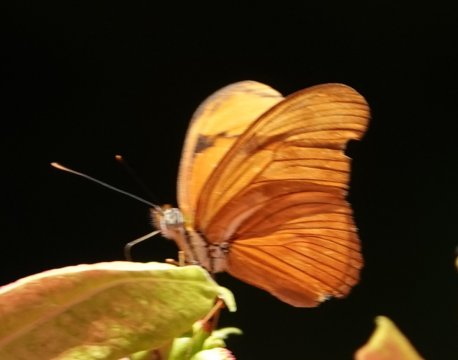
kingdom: Animalia
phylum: Arthropoda
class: Insecta
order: Lepidoptera
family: Nymphalidae
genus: Dryas
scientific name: Dryas iulia
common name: Julia
